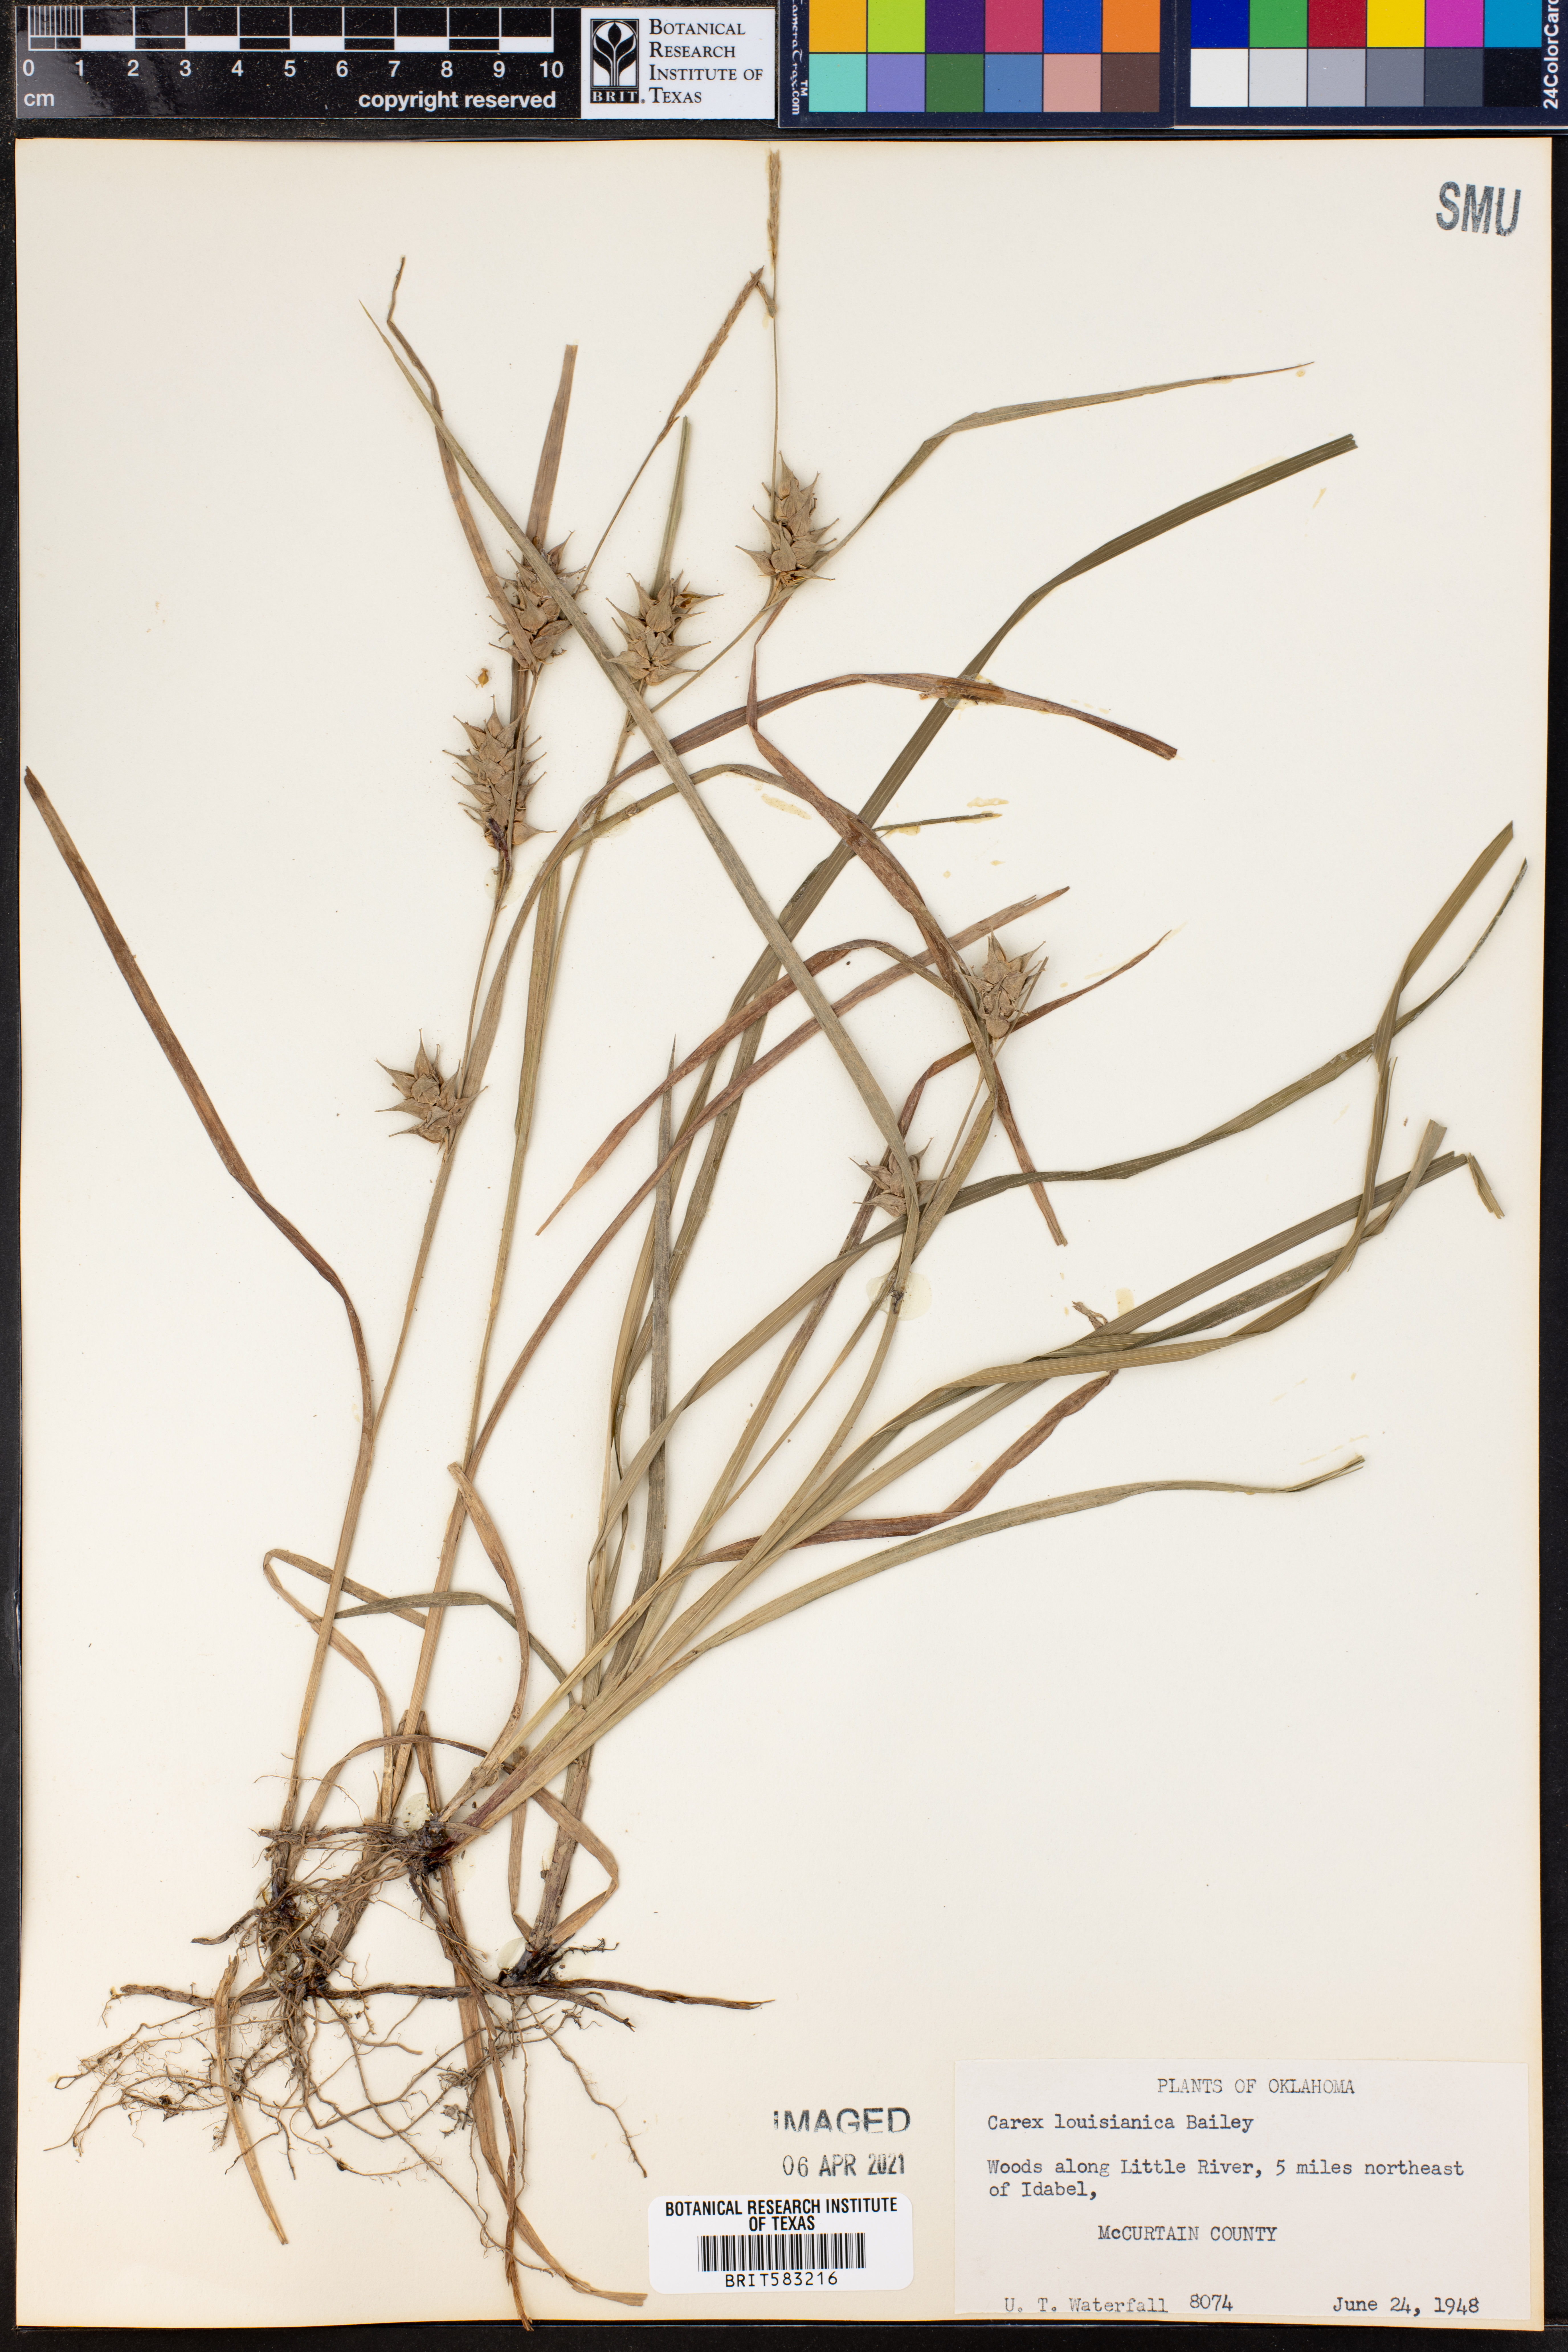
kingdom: Plantae
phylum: Tracheophyta
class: Liliopsida
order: Poales
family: Cyperaceae
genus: Carex
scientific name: Carex louisianica
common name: Louisiana sedge
